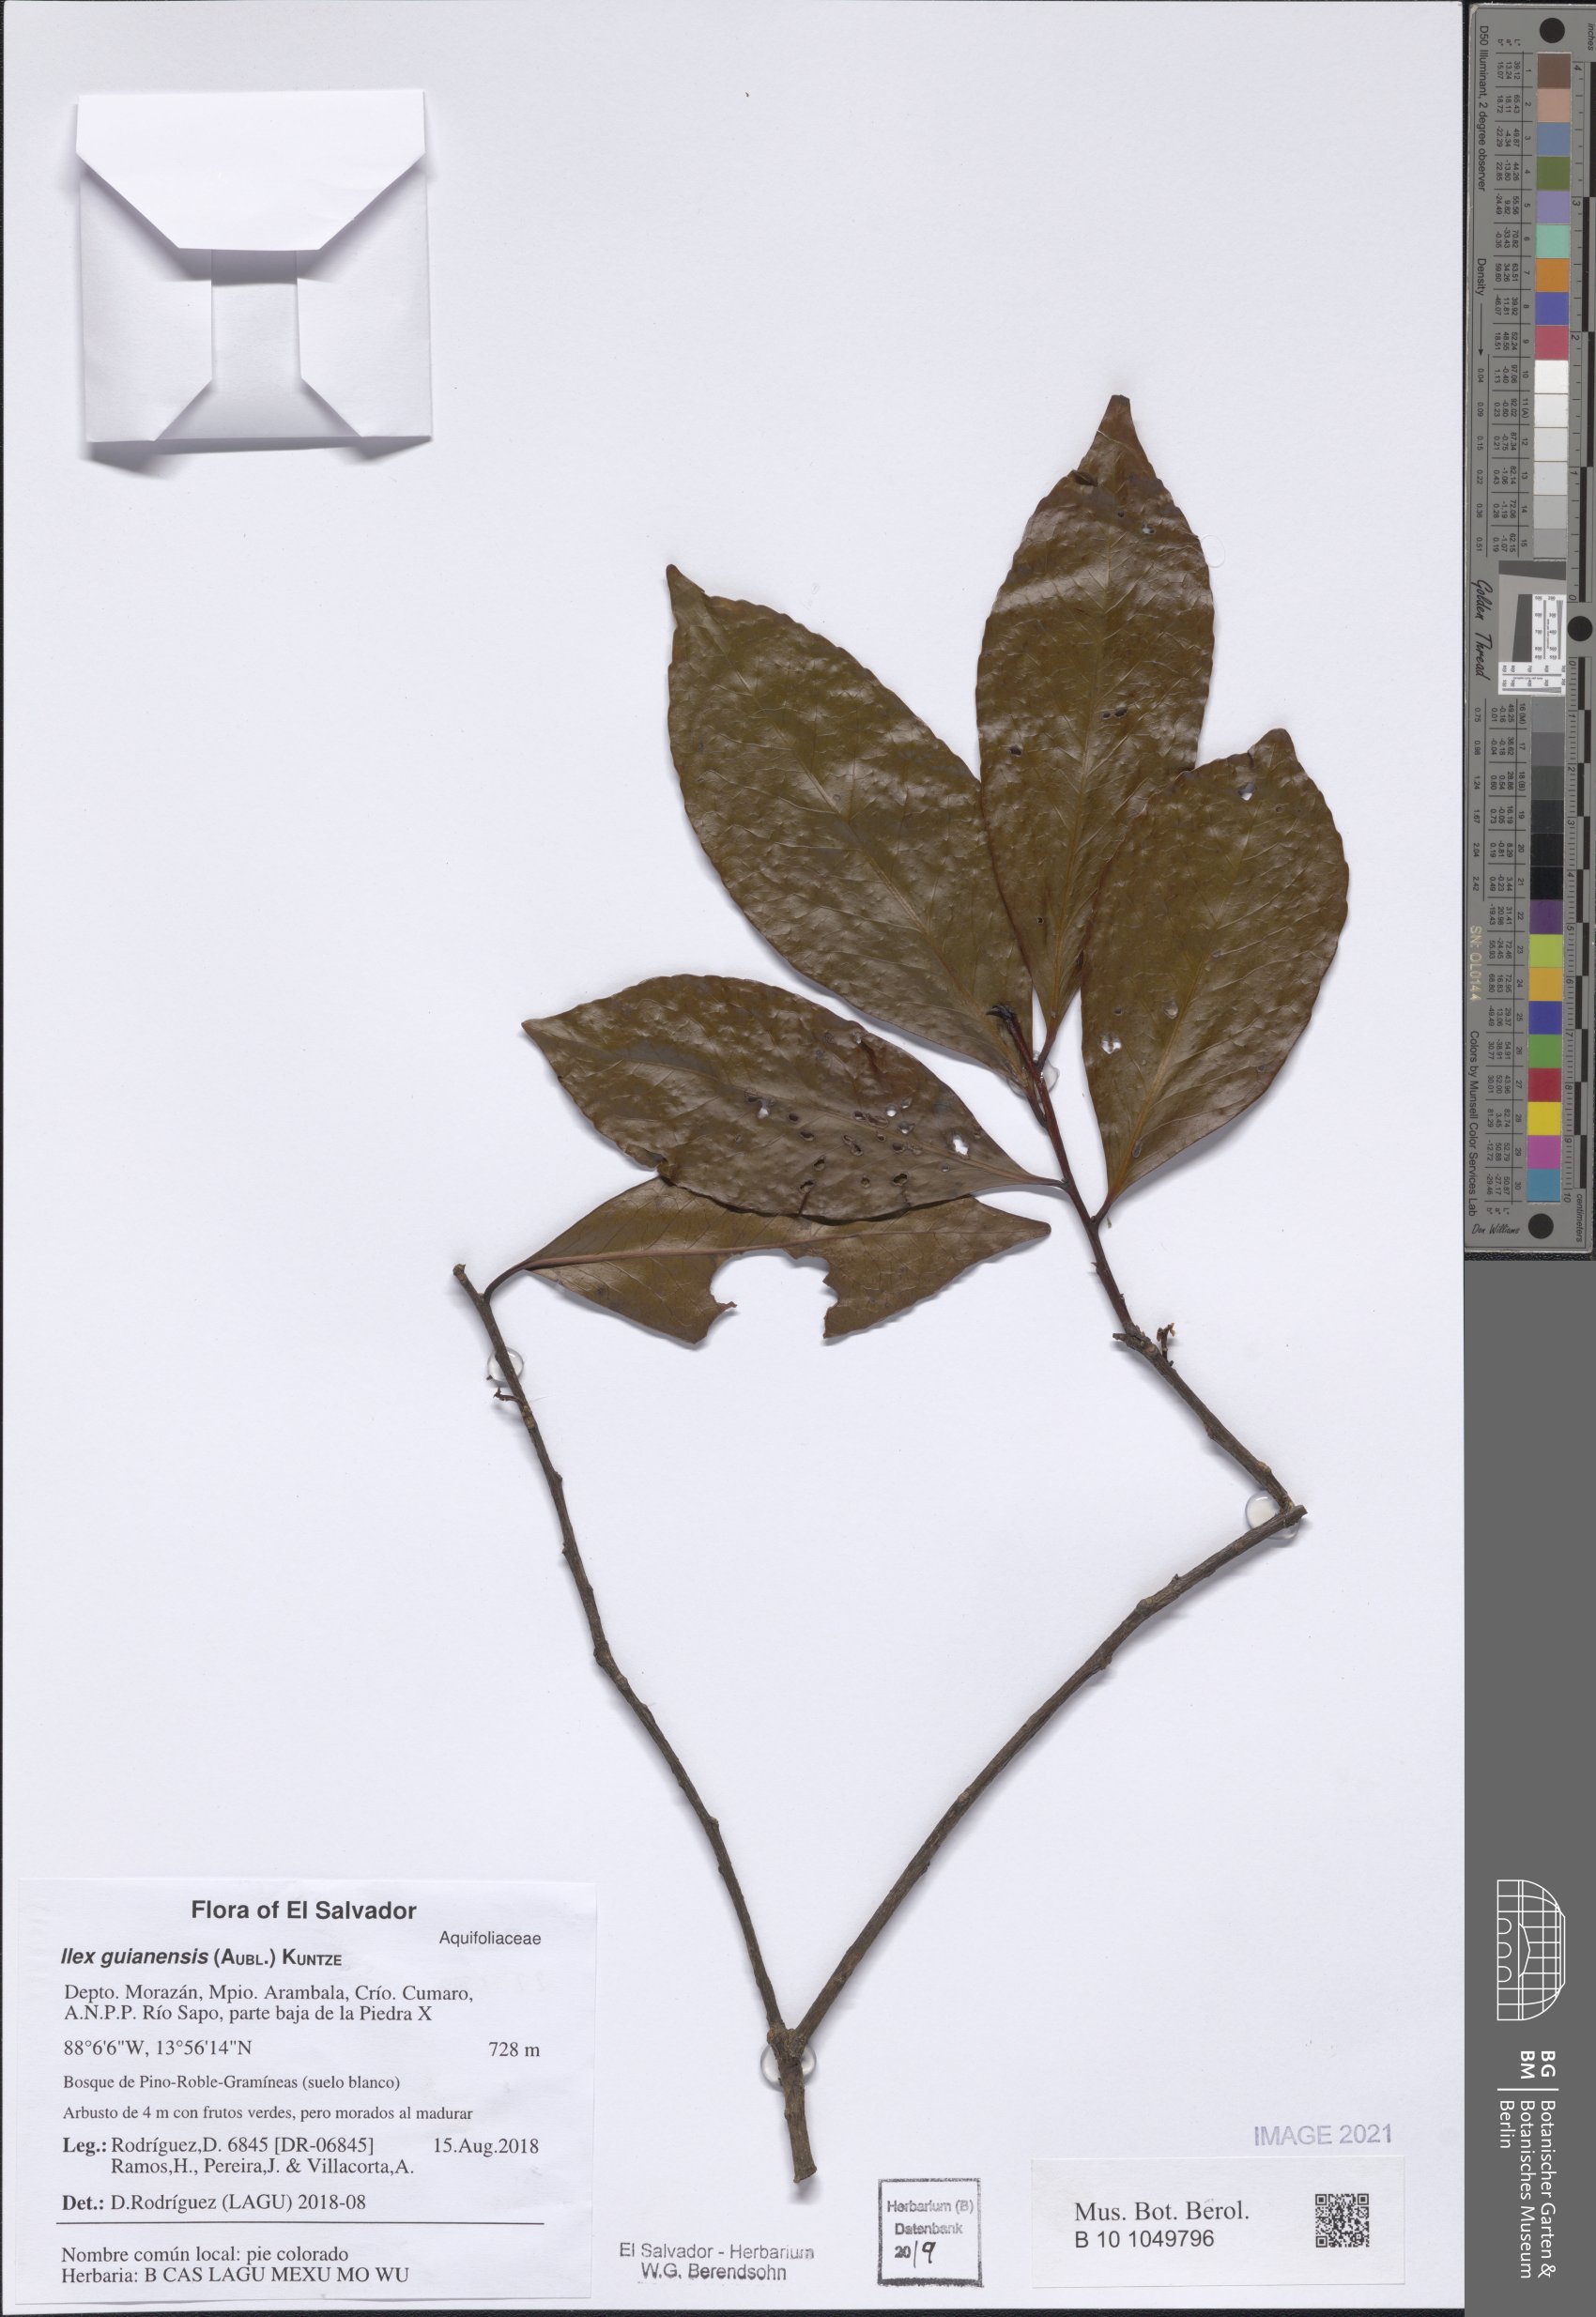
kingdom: Plantae
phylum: Tracheophyta
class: Magnoliopsida
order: Ericales
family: Symplocaceae
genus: Symplocos
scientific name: Symplocos costaricana
